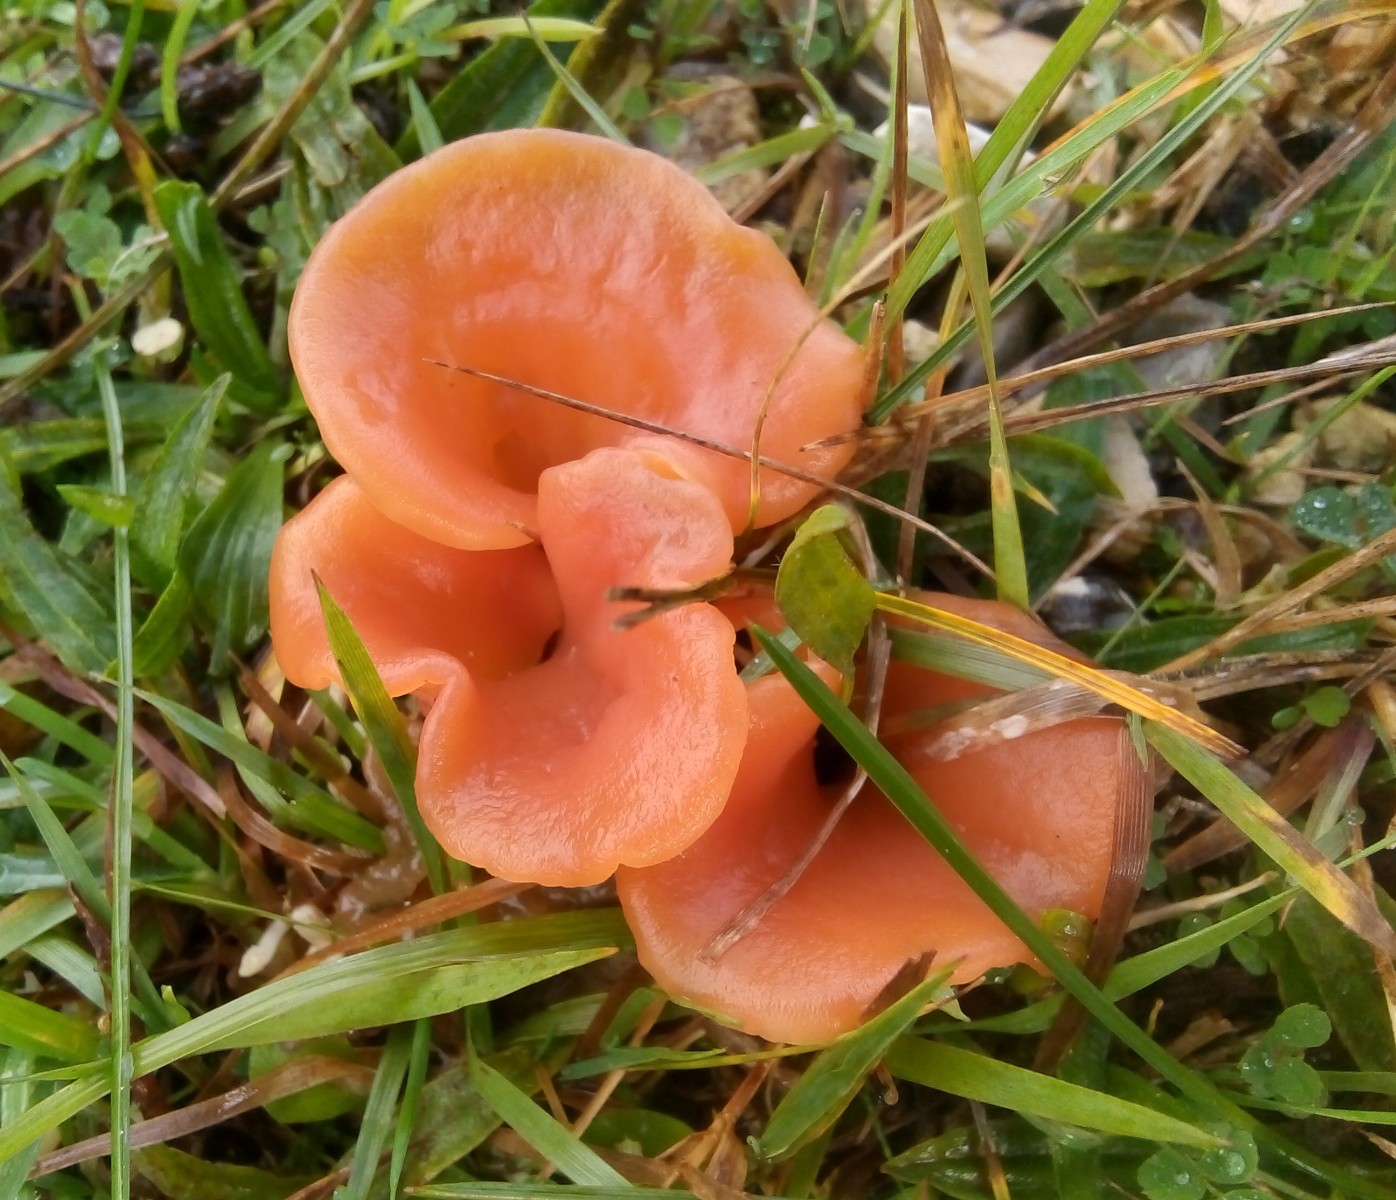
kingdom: Fungi
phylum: Basidiomycota
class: Agaricomycetes
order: Auriculariales
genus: Guepinia
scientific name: Guepinia helvelloides
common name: bævretunge
